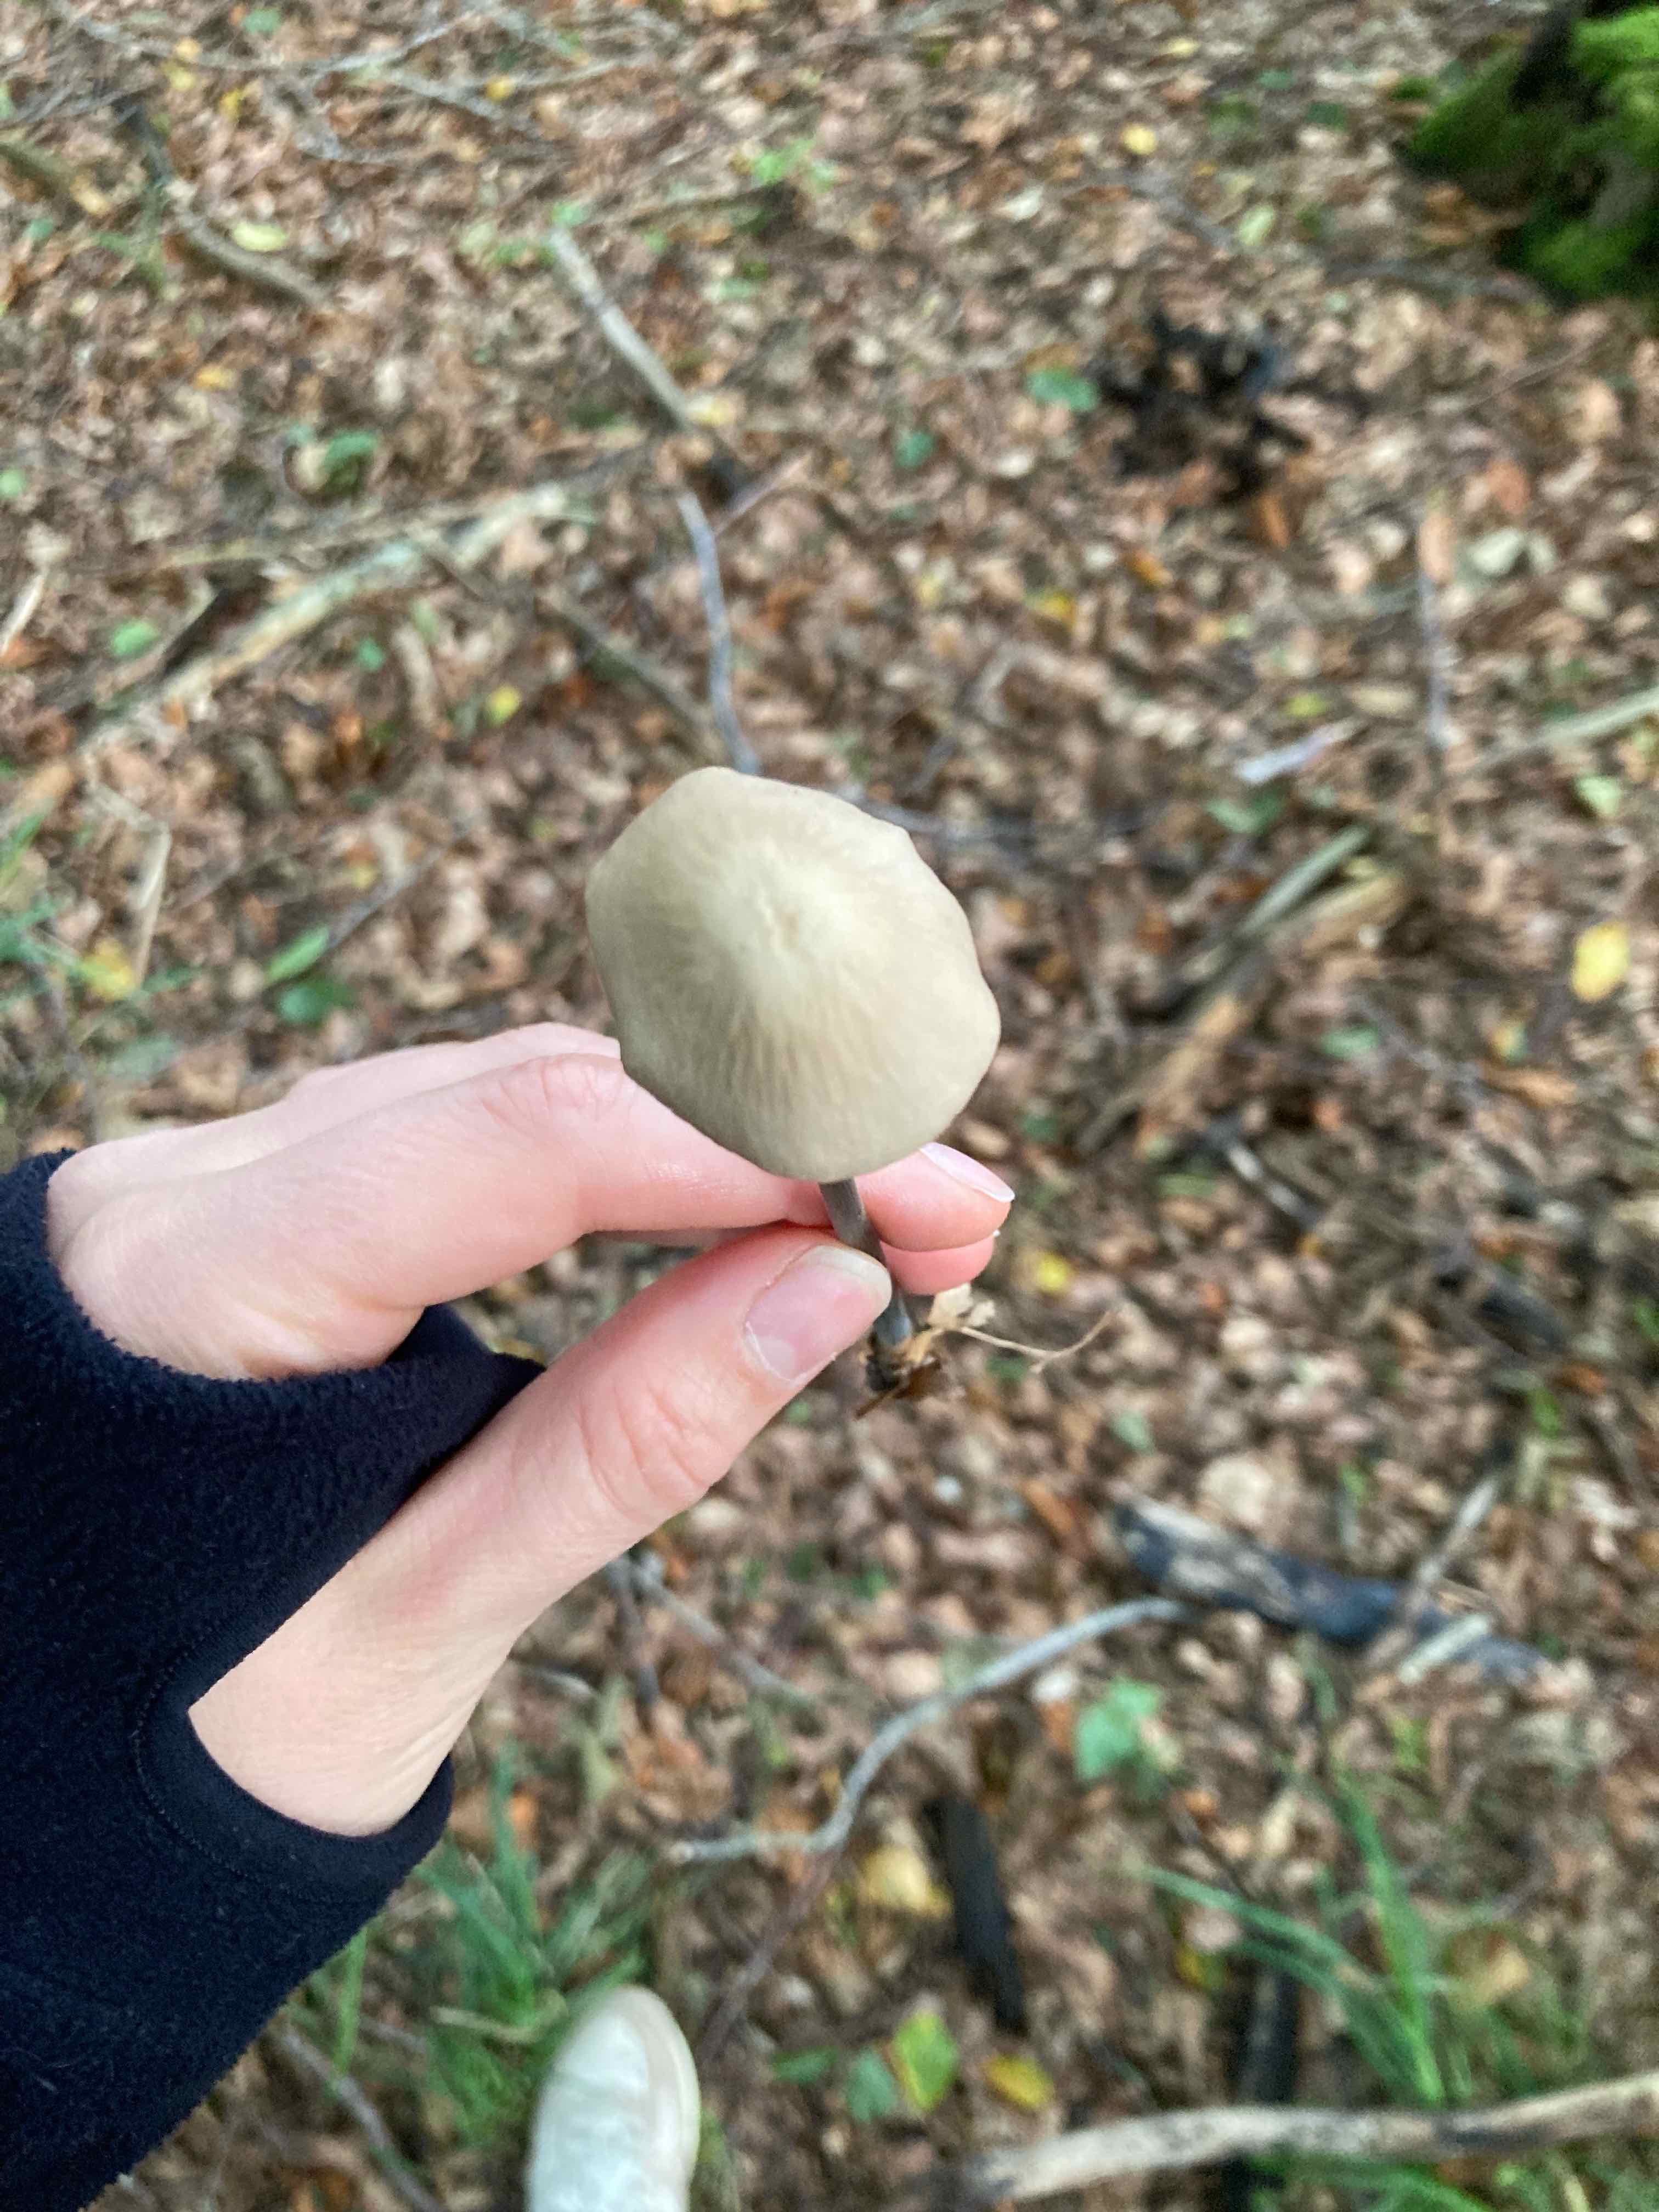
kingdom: Fungi
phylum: Basidiomycota
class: Agaricomycetes
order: Agaricales
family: Omphalotaceae
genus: Mycetinis
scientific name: Mycetinis alliaceus
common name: stor løghat
